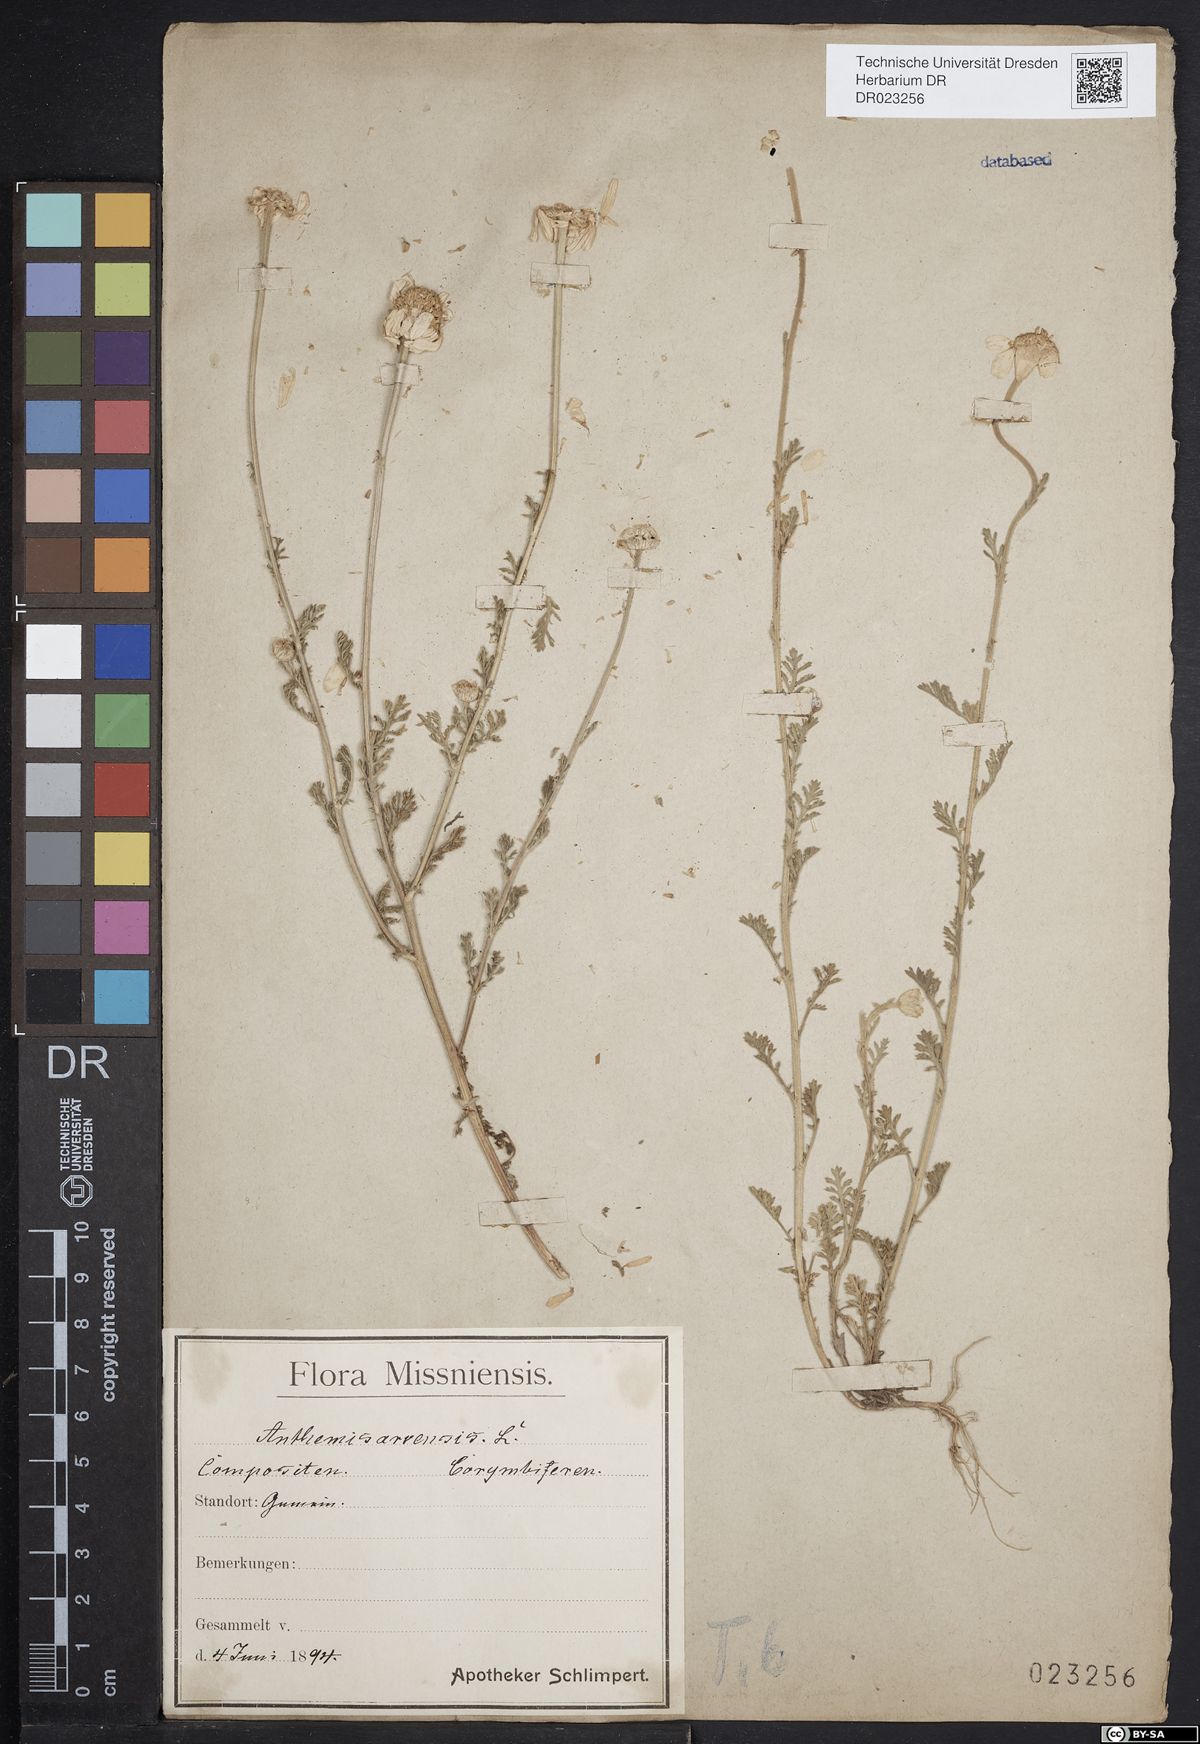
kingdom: Plantae
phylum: Tracheophyta
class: Magnoliopsida
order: Asterales
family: Asteraceae
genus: Anthemis
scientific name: Anthemis arvensis
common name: Corn chamomile
